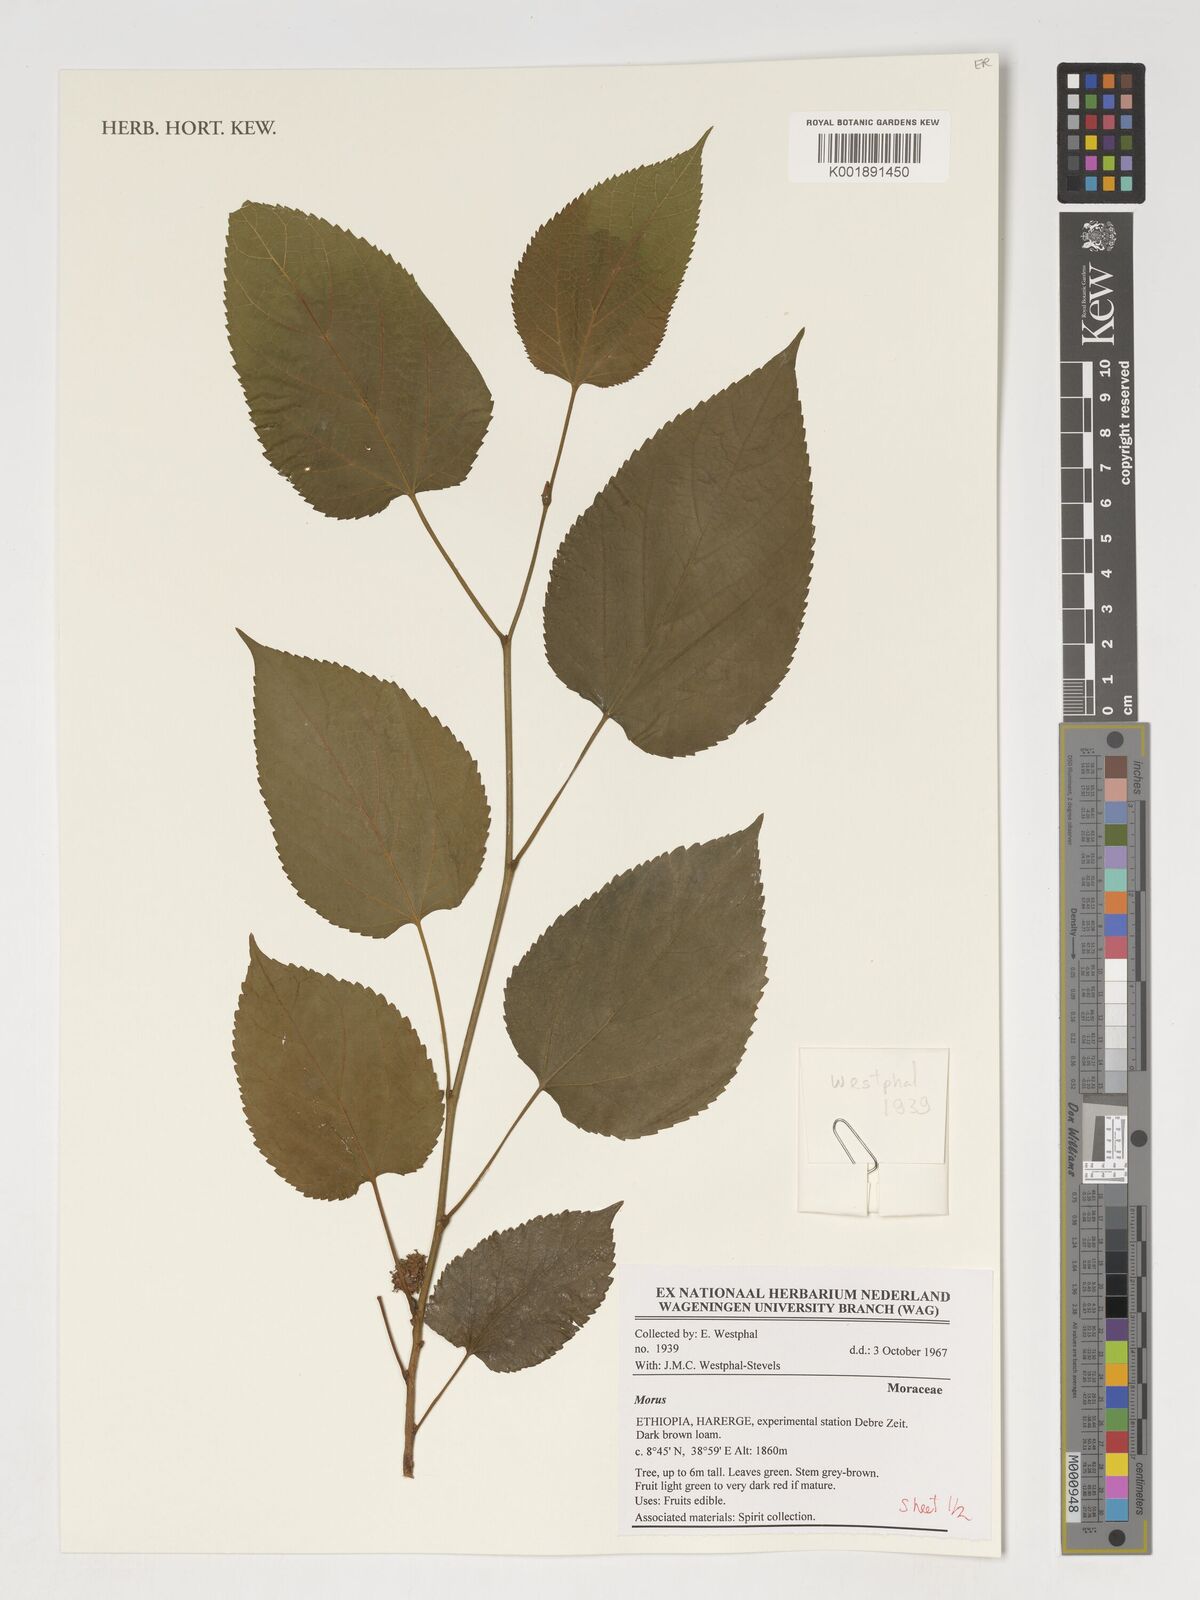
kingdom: Plantae
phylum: Tracheophyta
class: Magnoliopsida
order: Rosales
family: Moraceae
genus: Morus
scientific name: Morus
